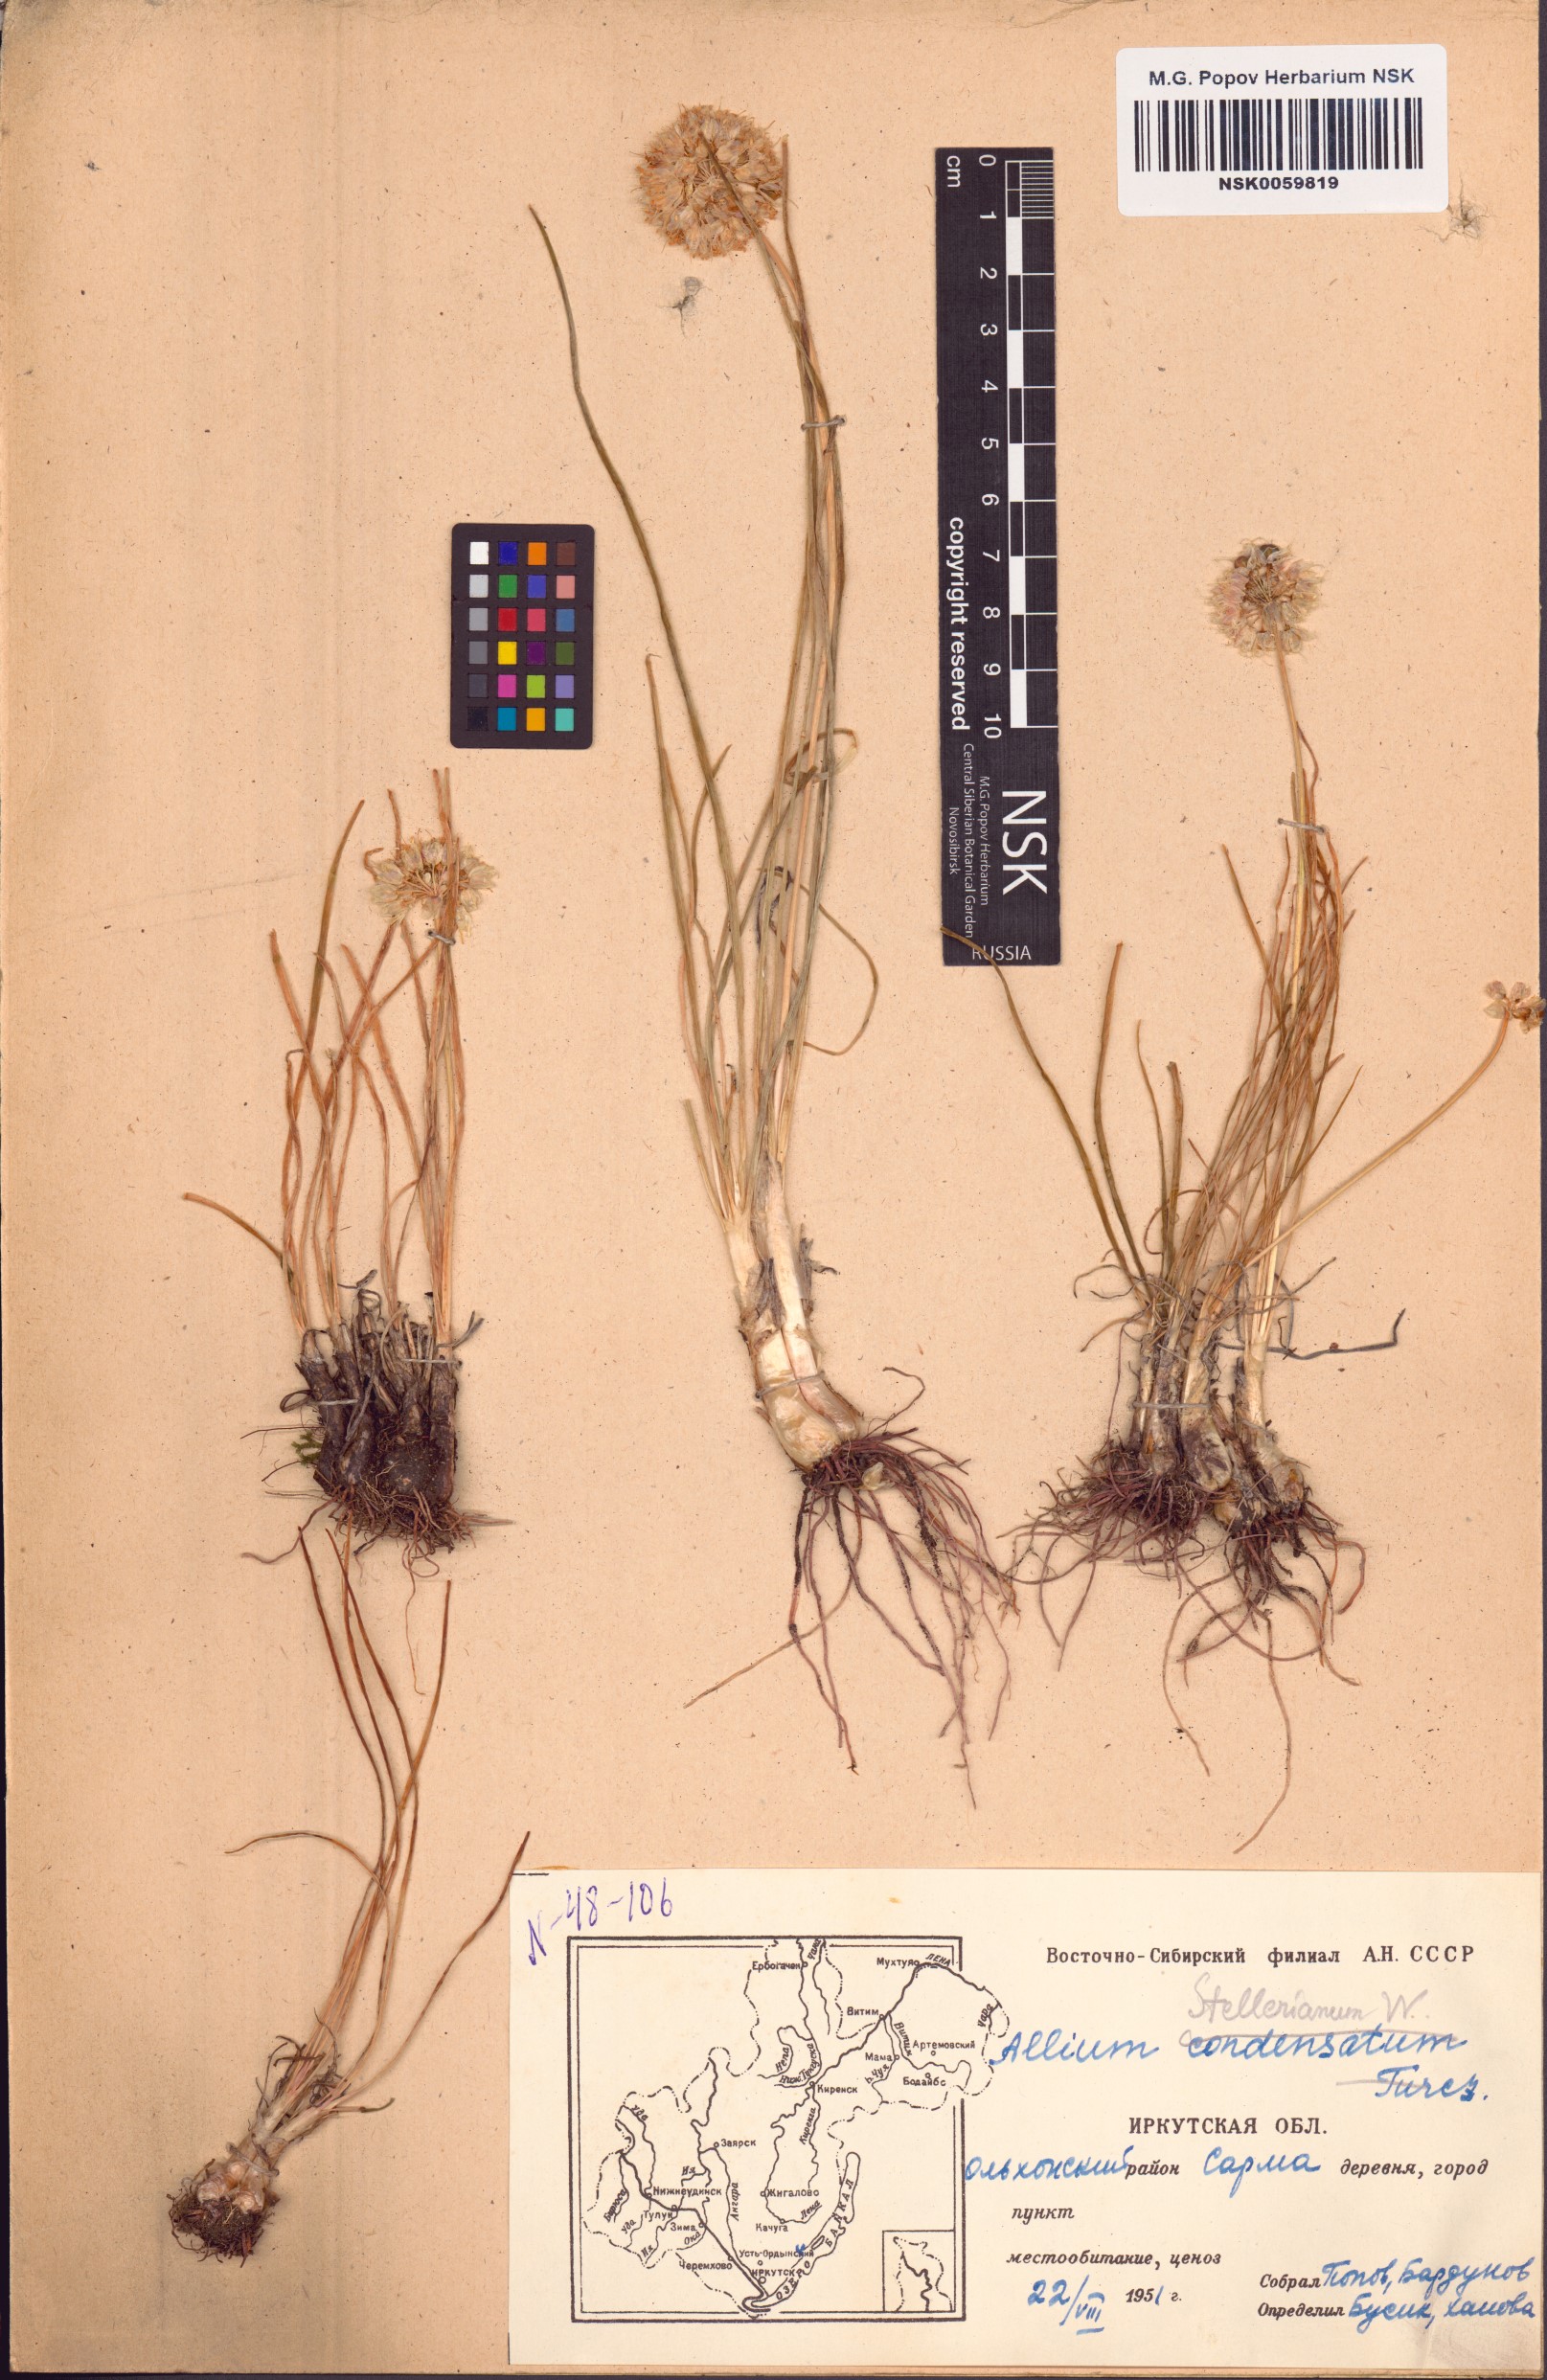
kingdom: Plantae
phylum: Tracheophyta
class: Liliopsida
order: Asparagales
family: Amaryllidaceae
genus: Allium
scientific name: Allium stellerianum
